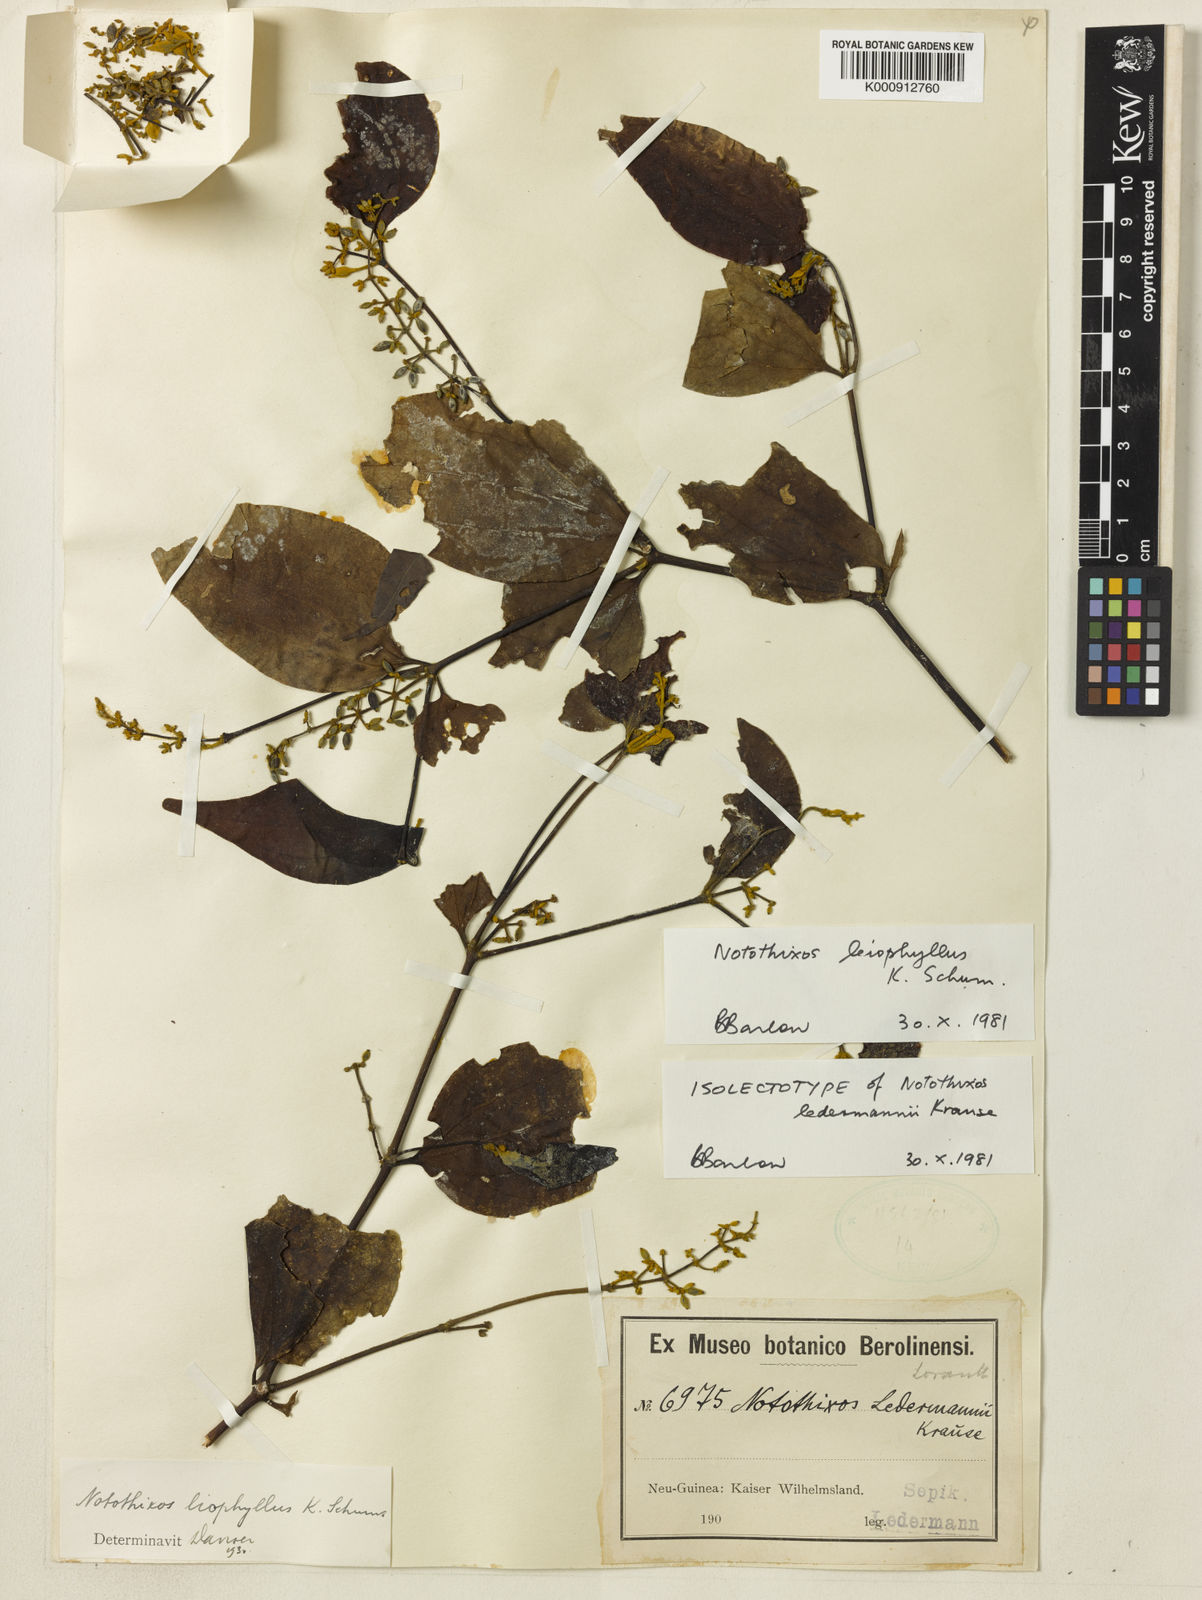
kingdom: Plantae
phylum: Tracheophyta
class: Magnoliopsida
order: Santalales
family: Viscaceae
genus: Notothixos
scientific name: Notothixos leiophyllus
